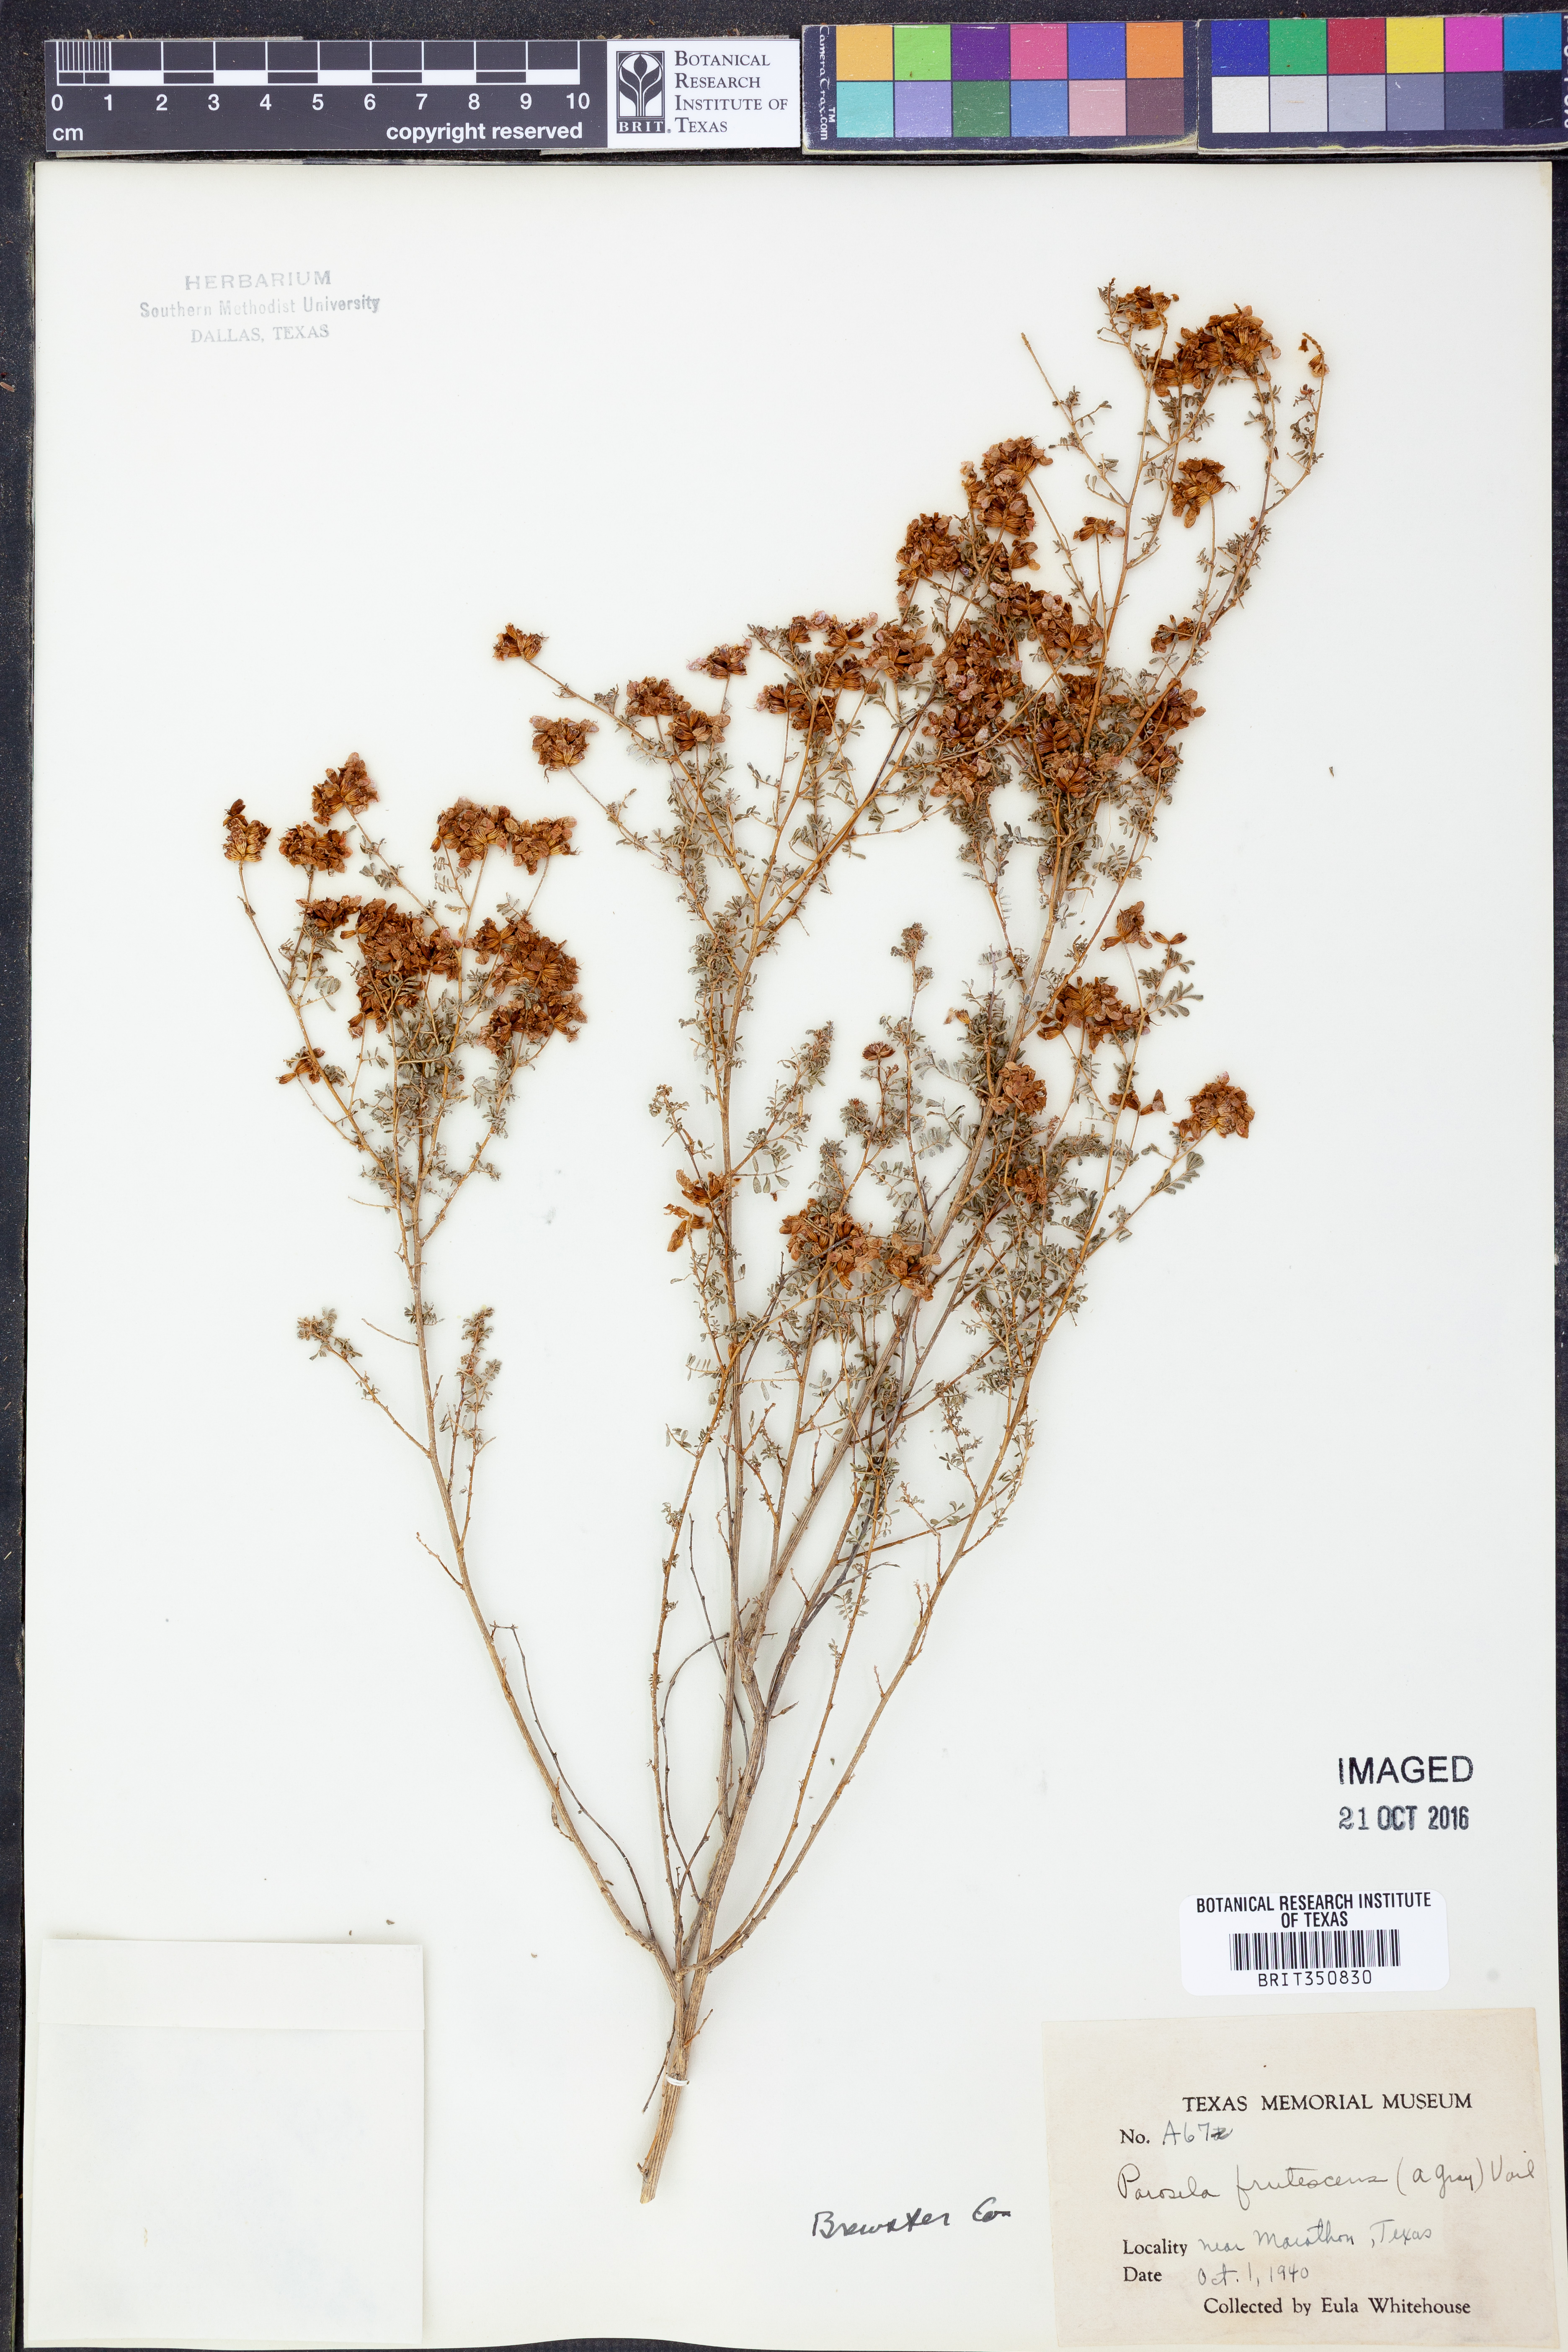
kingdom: Plantae
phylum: Tracheophyta
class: Magnoliopsida
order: Fabales
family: Fabaceae
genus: Dalea
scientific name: Dalea frutescens
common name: Black dalea
